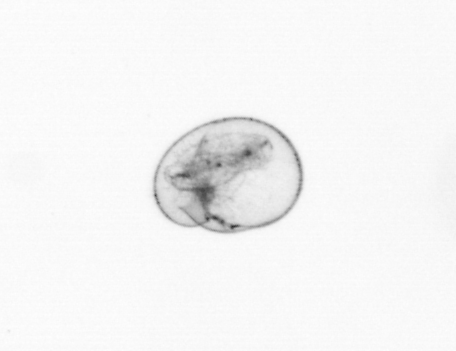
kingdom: Chromista
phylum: Myzozoa
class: Dinophyceae
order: Noctilucales
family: Noctilucaceae
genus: Noctiluca
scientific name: Noctiluca scintillans
